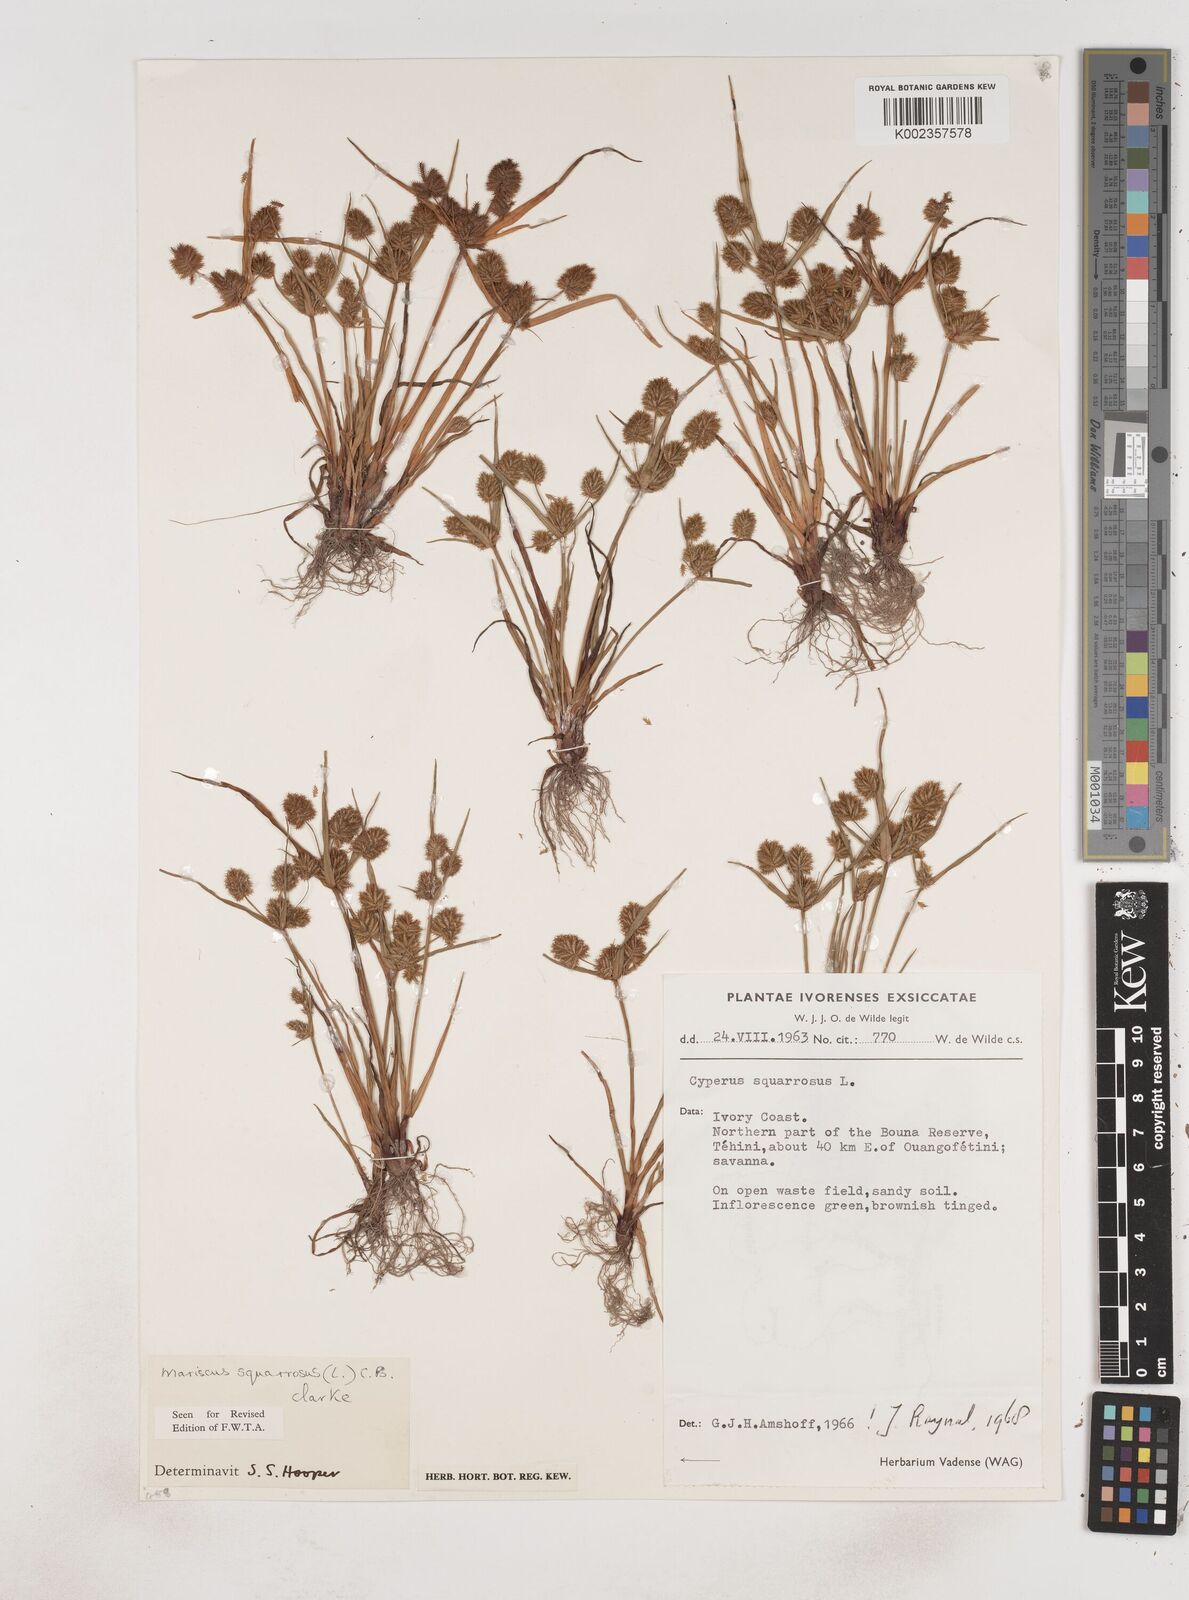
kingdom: Plantae
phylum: Tracheophyta
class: Liliopsida
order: Poales
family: Cyperaceae
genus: Cyperus
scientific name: Cyperus squarrosus
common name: Awned cyperus
